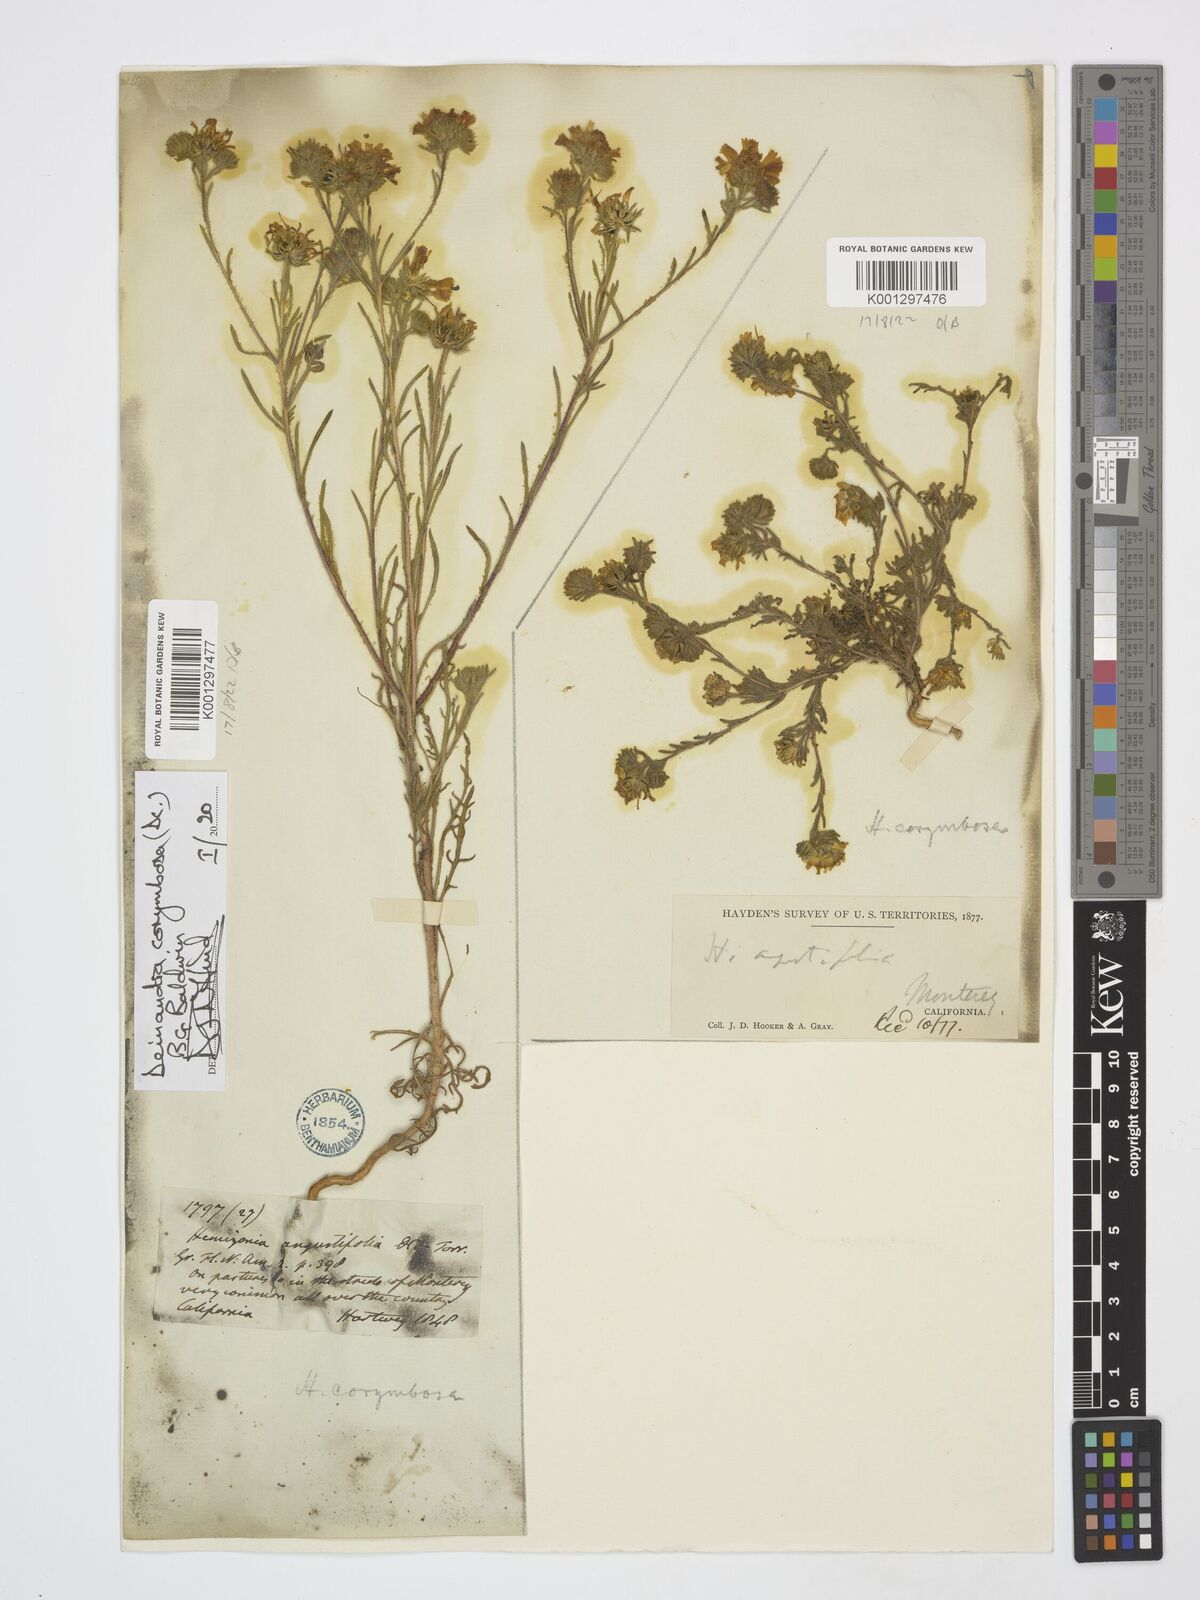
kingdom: Plantae
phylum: Tracheophyta
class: Magnoliopsida
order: Asterales
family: Asteraceae
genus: Deinandra
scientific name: Deinandra corymbosa
